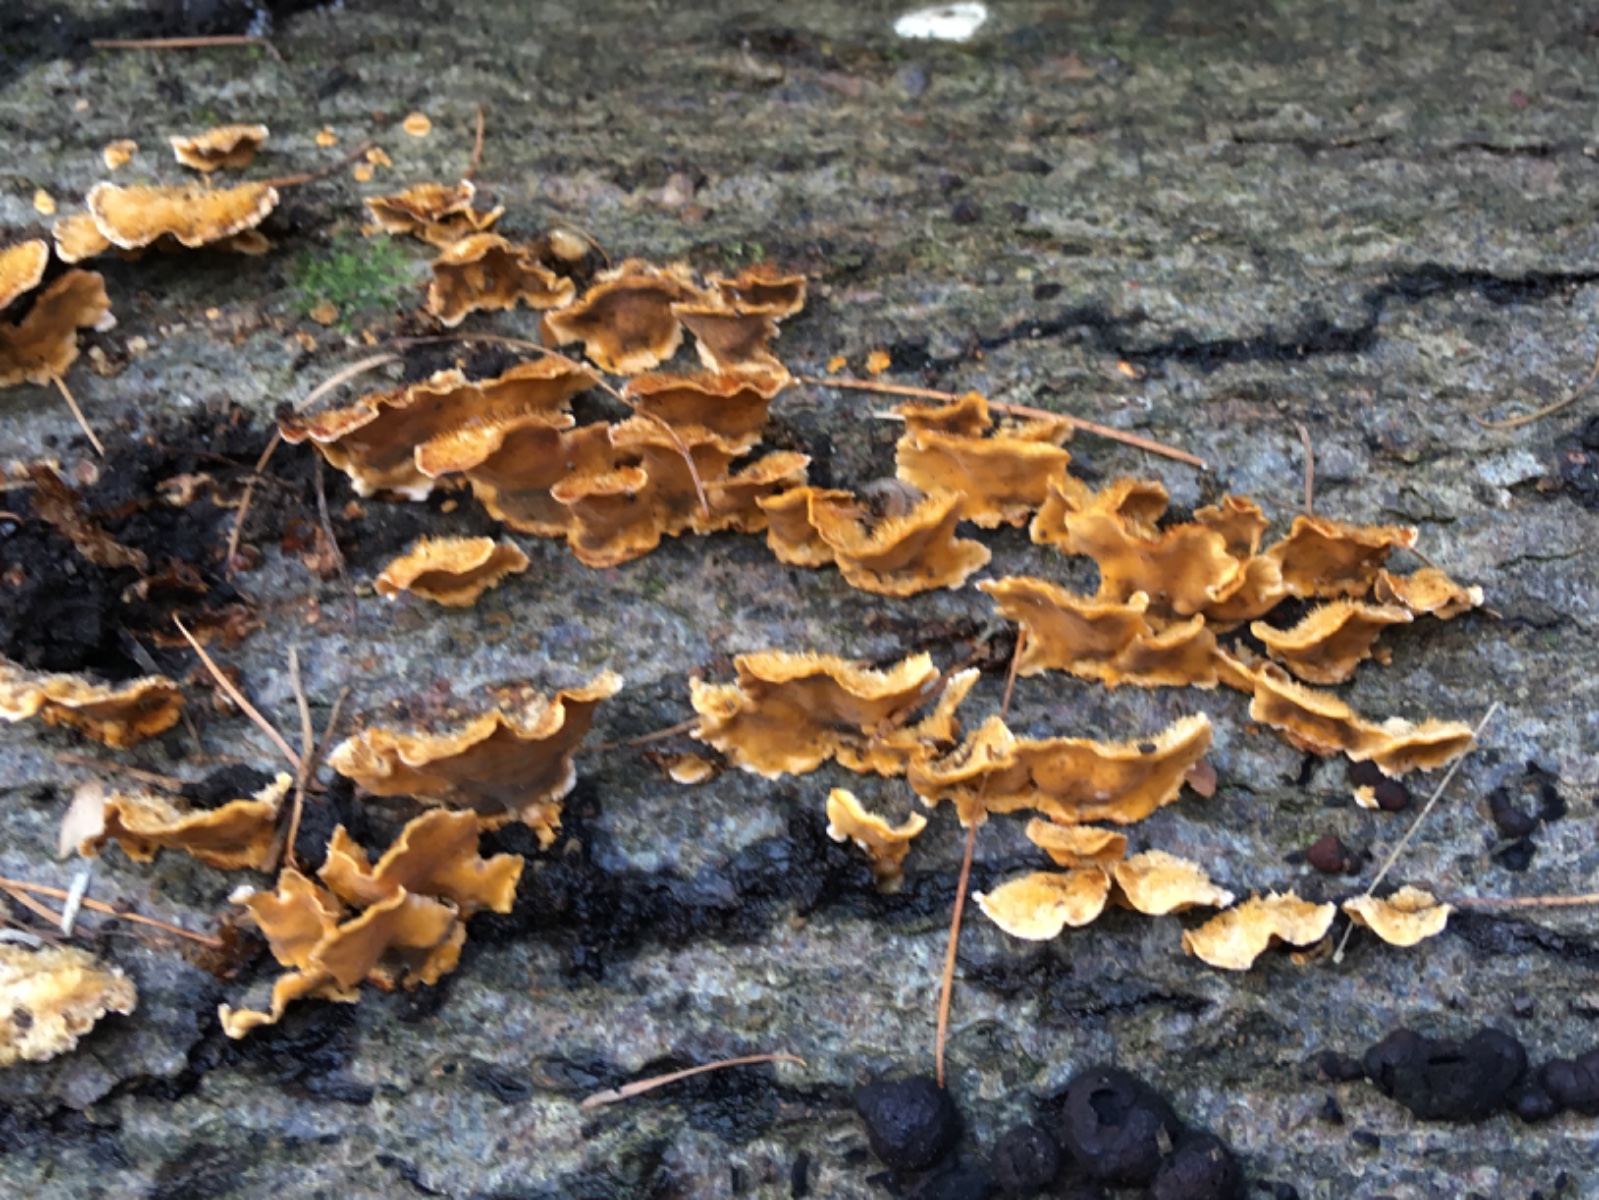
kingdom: Fungi
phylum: Basidiomycota
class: Agaricomycetes
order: Russulales
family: Stereaceae
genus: Stereum
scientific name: Stereum hirsutum
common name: håret lædersvamp
